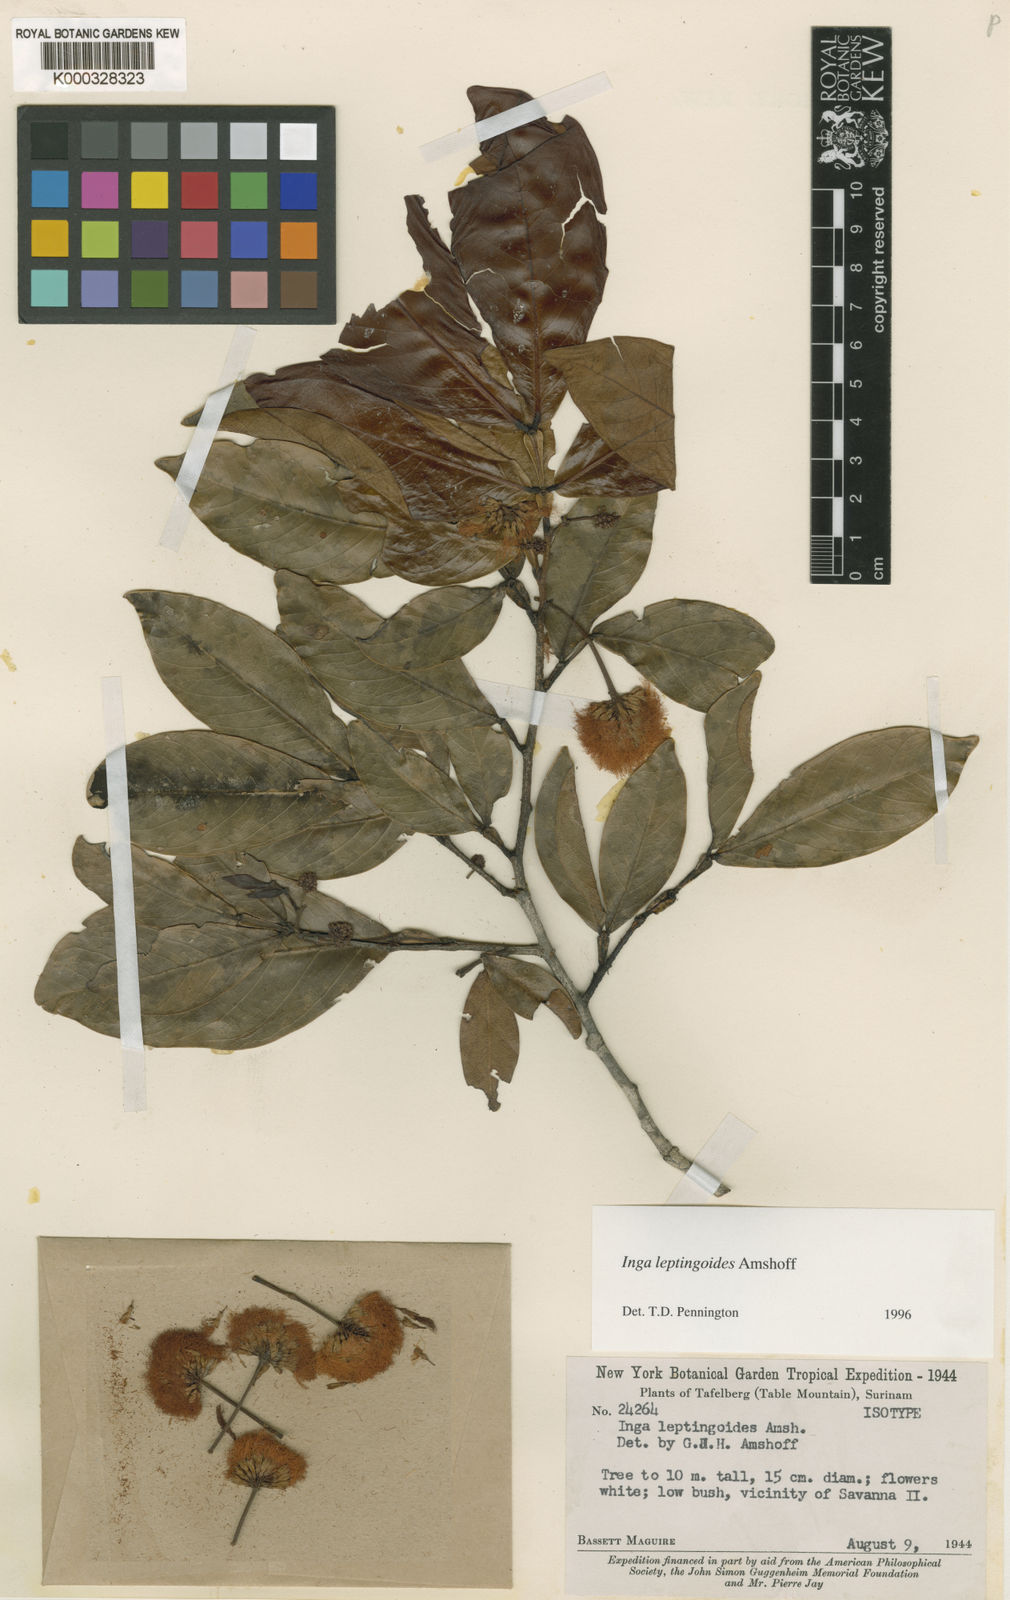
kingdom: Plantae
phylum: Tracheophyta
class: Magnoliopsida
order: Fabales
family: Fabaceae
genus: Inga
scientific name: Inga leptingoides
